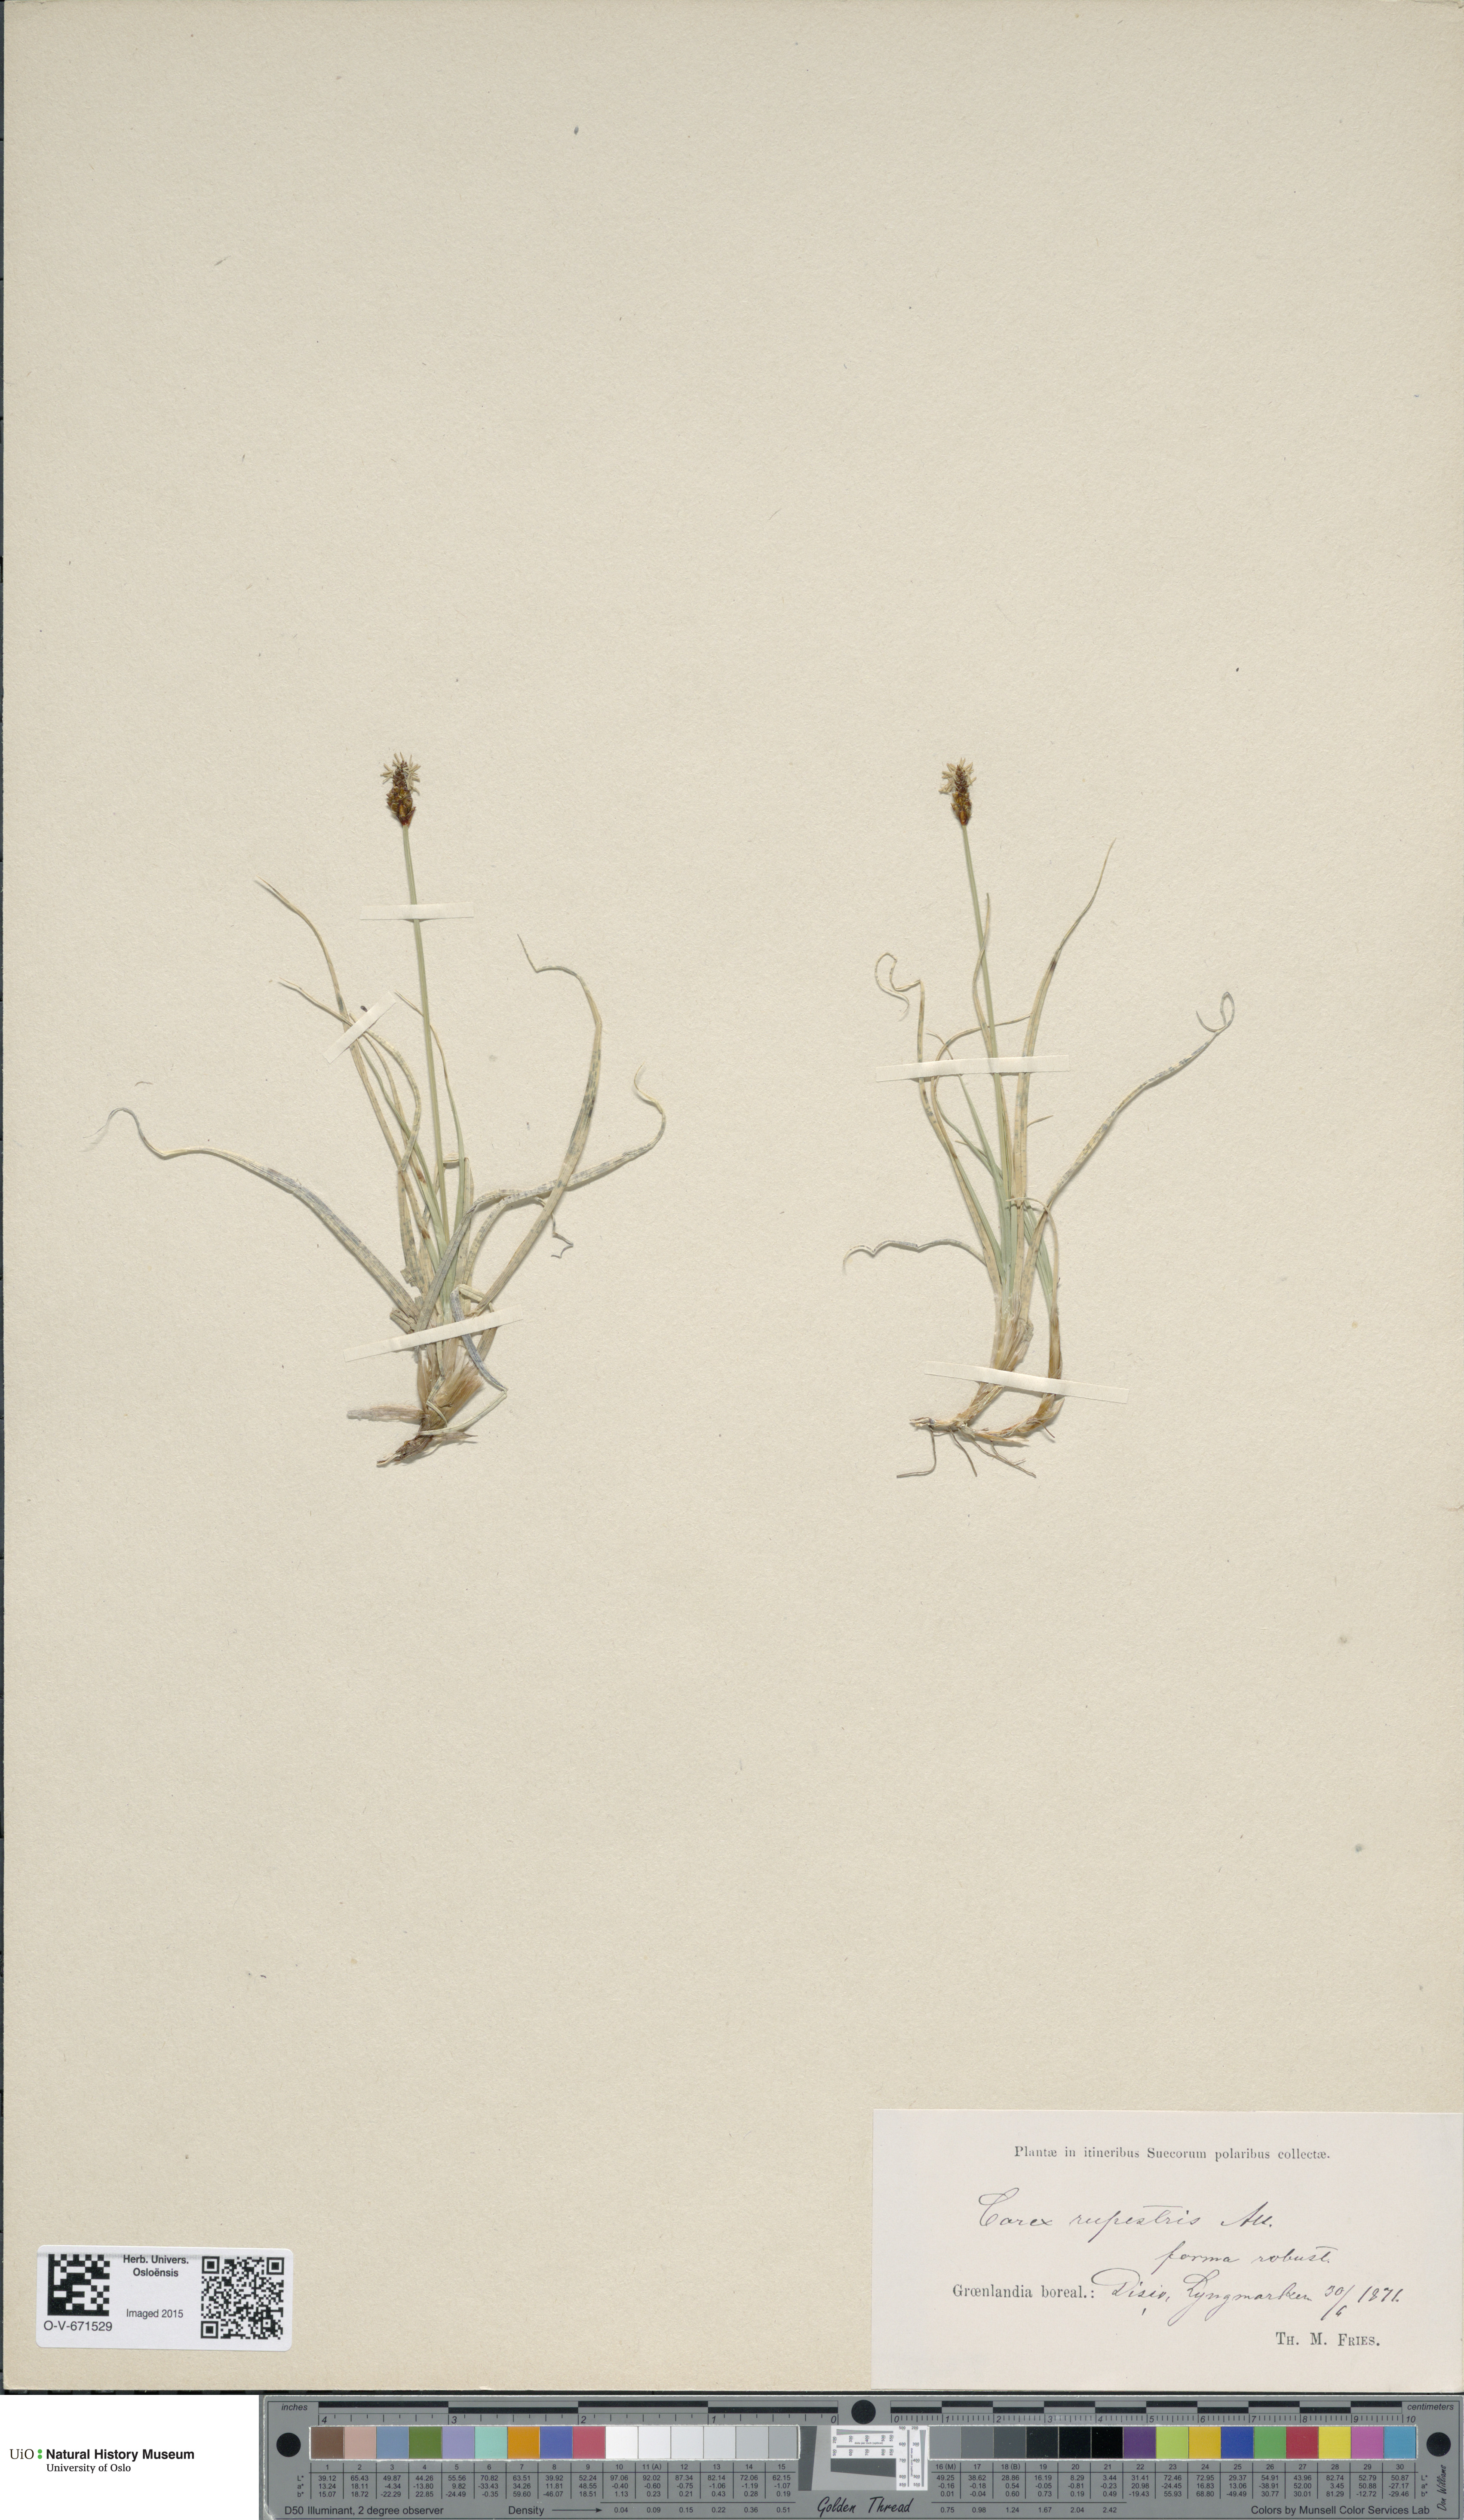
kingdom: Plantae
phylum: Tracheophyta
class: Liliopsida
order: Poales
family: Cyperaceae
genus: Carex
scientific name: Carex rupestris
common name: Rock sedge
